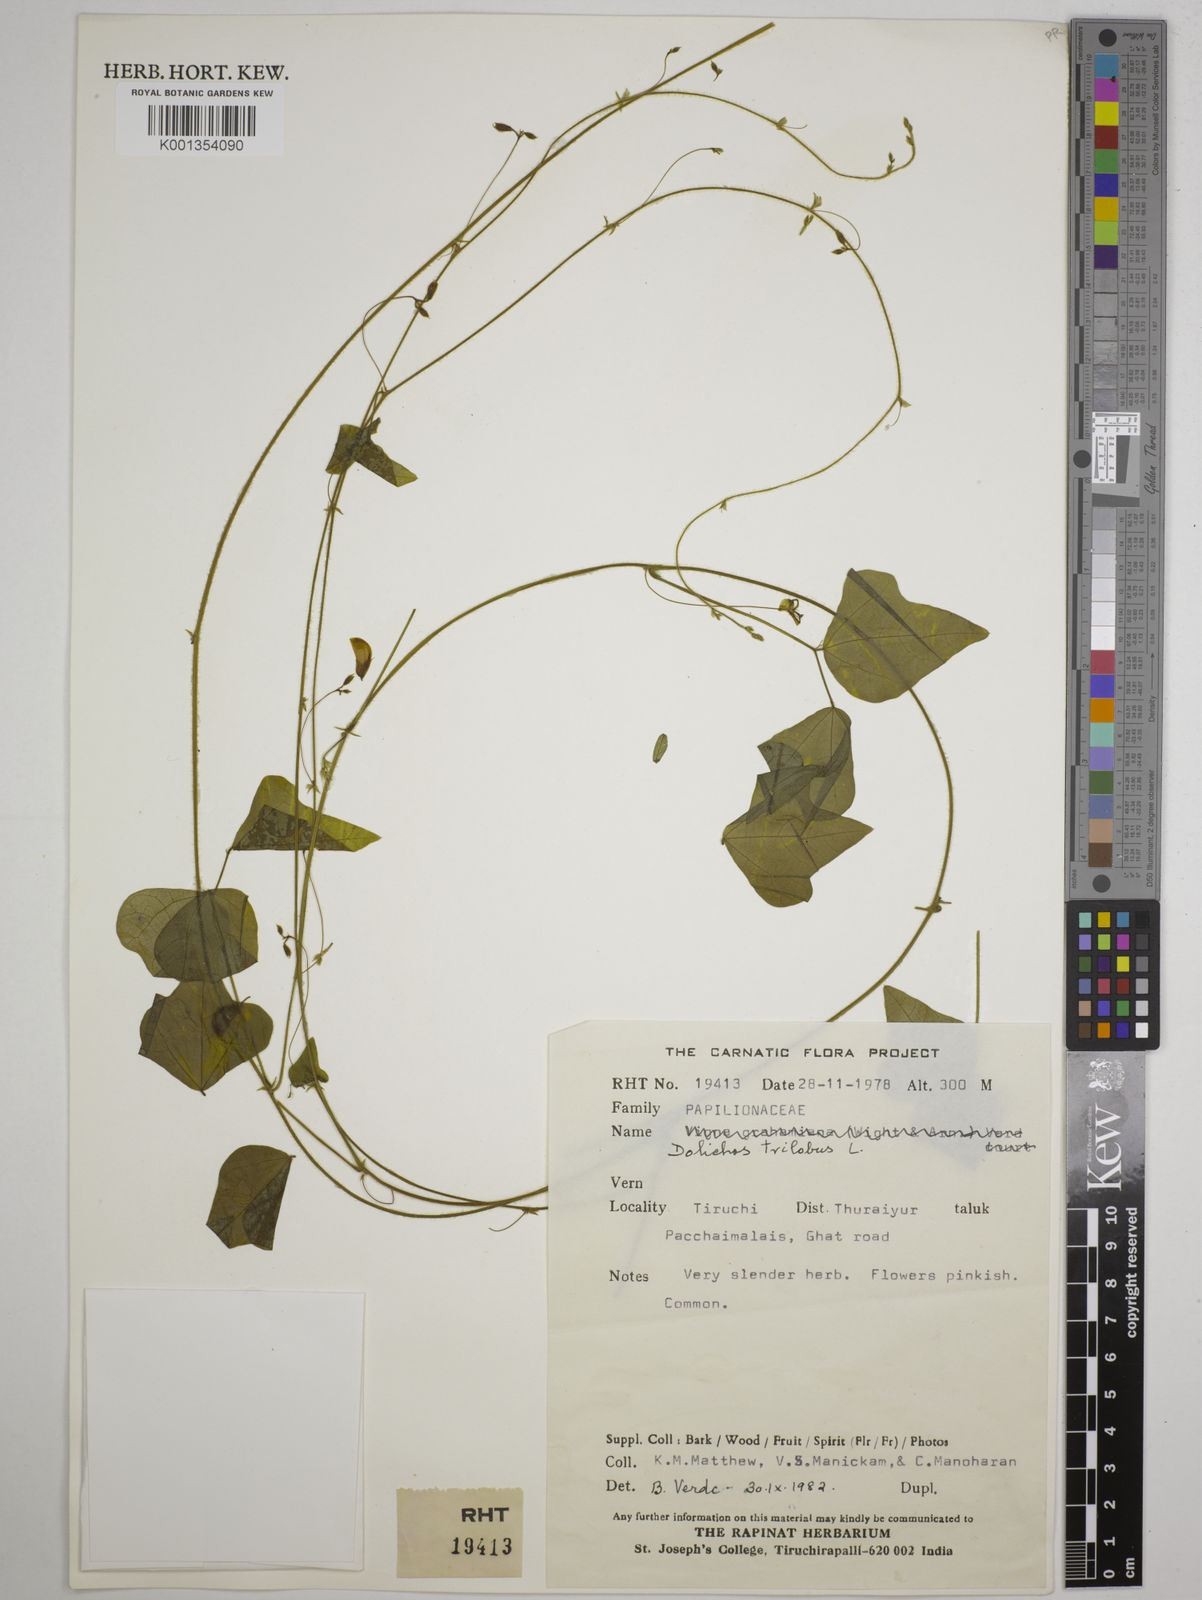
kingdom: Plantae
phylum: Tracheophyta
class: Magnoliopsida
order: Fabales
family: Fabaceae
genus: Dolichos
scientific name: Dolichos
